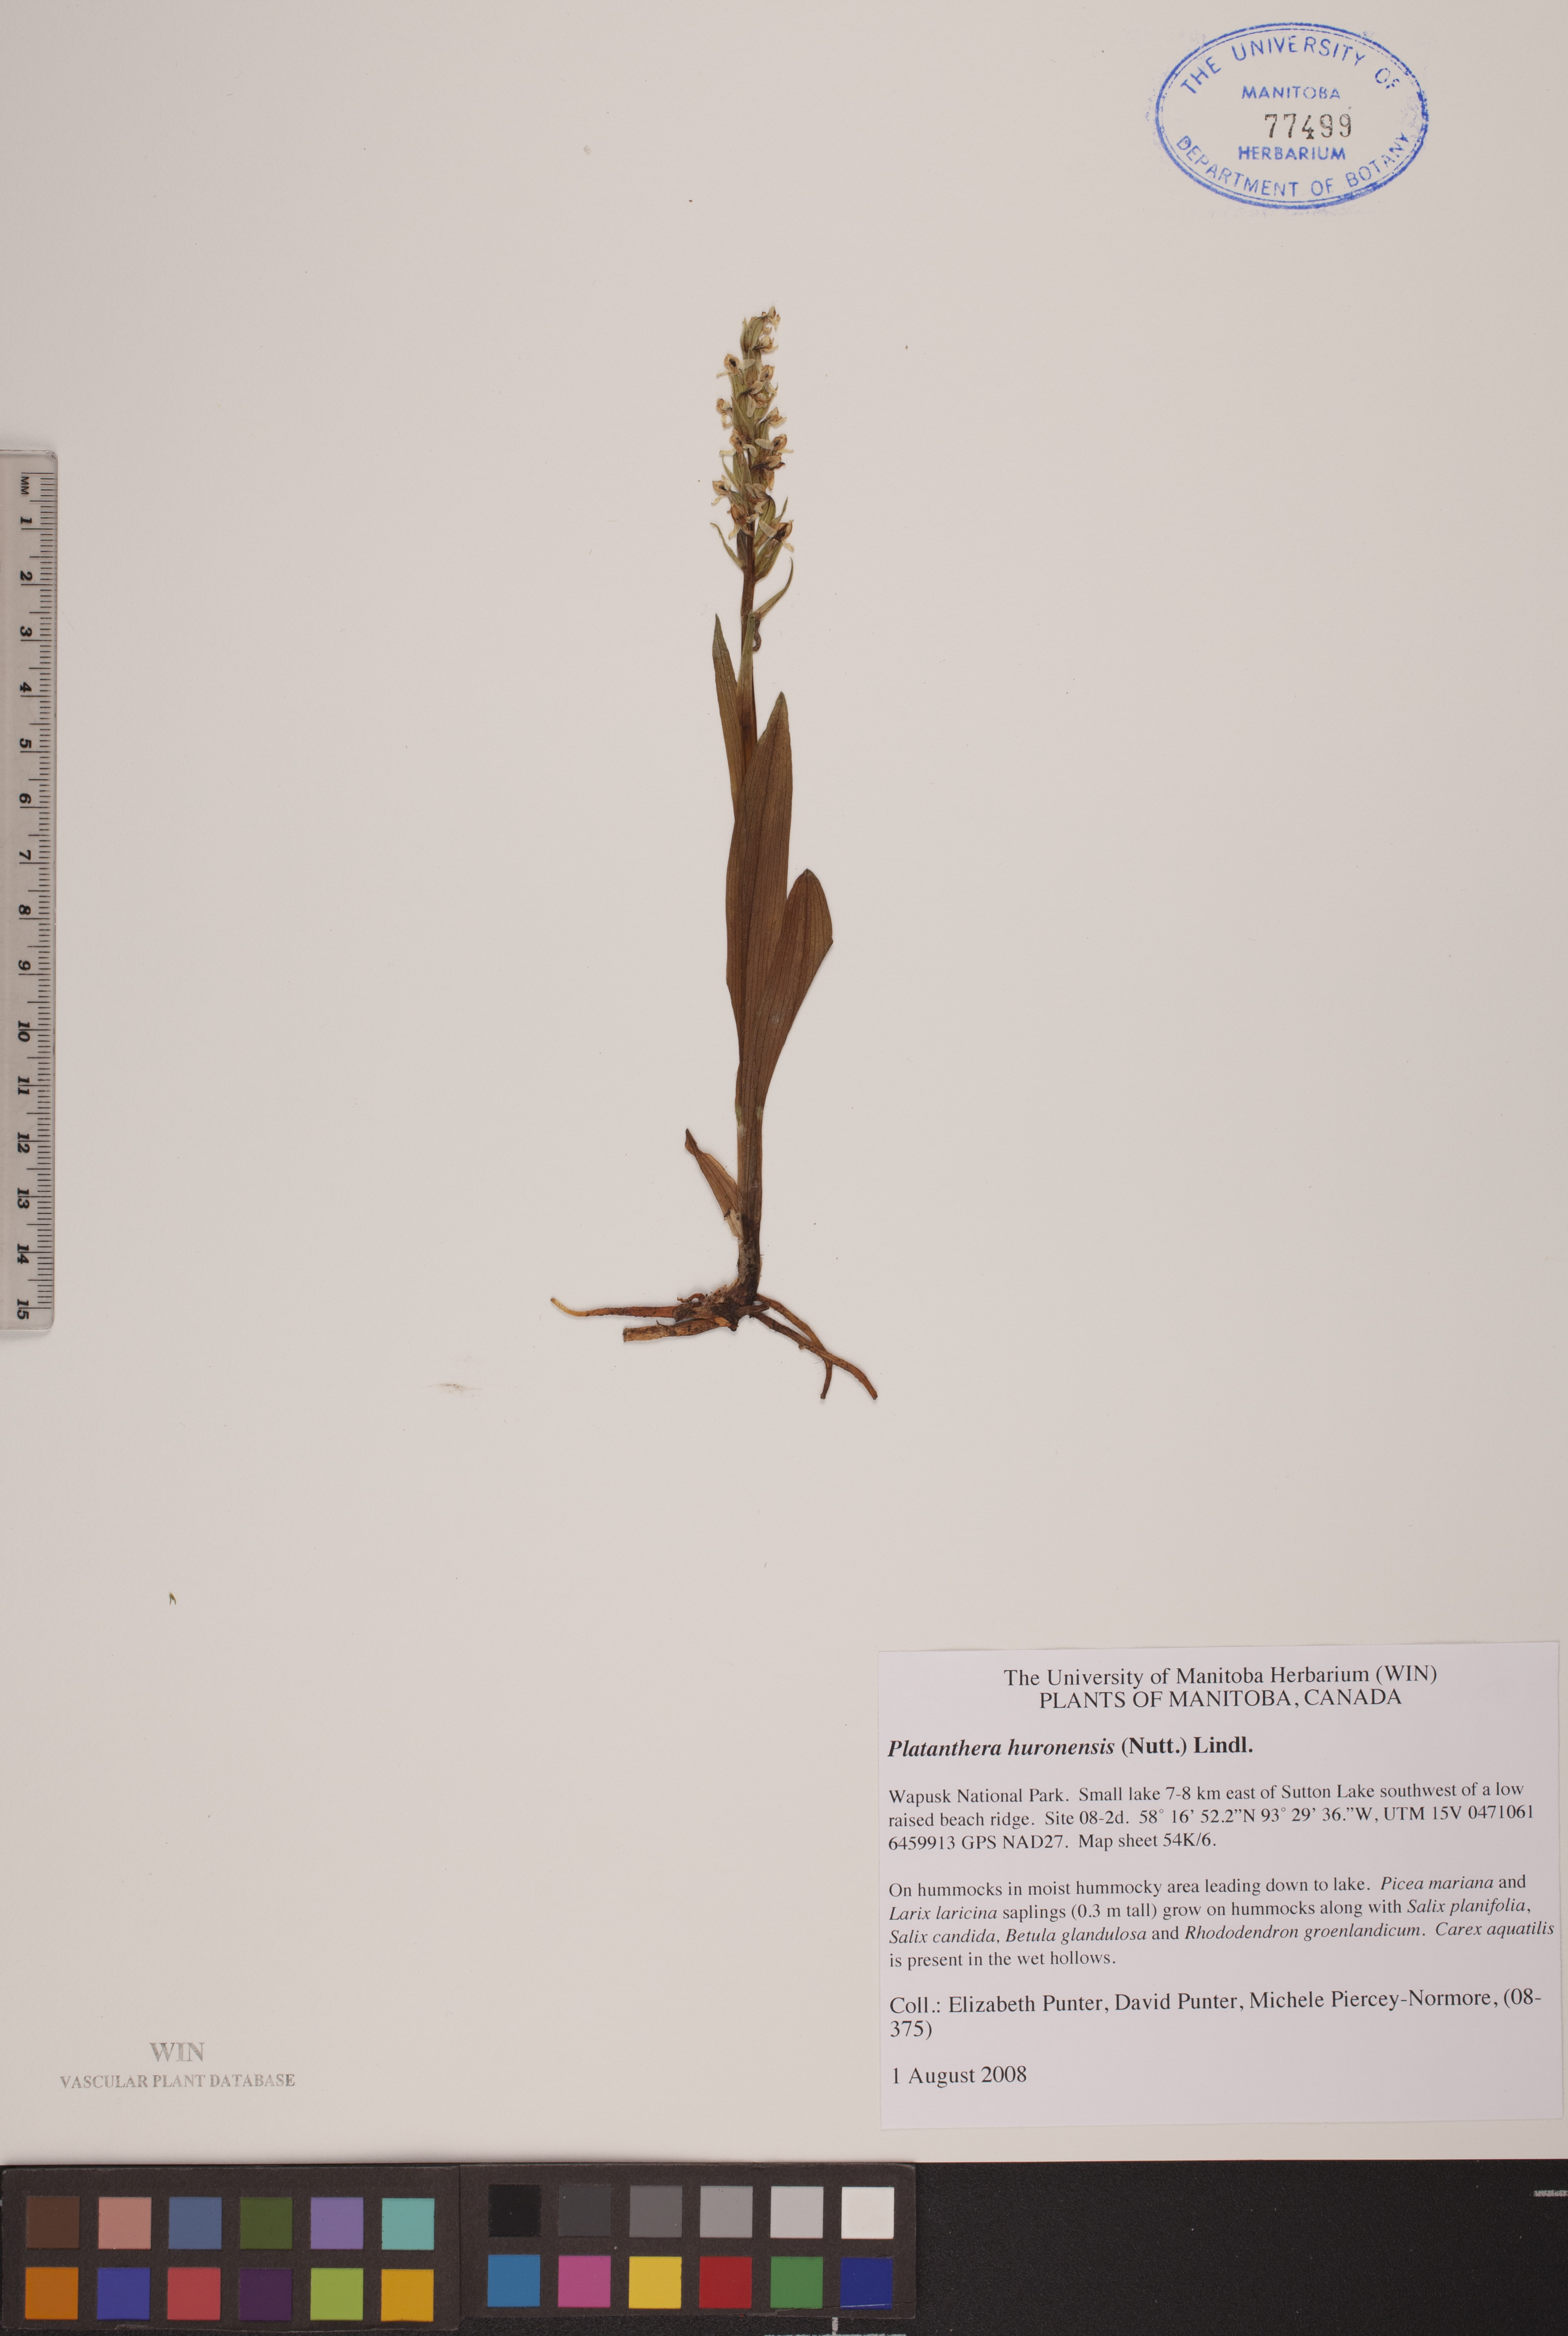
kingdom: Plantae
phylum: Tracheophyta
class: Liliopsida
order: Asparagales
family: Orchidaceae
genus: Platanthera
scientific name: Platanthera huronensis
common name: Fragrant green orchid
